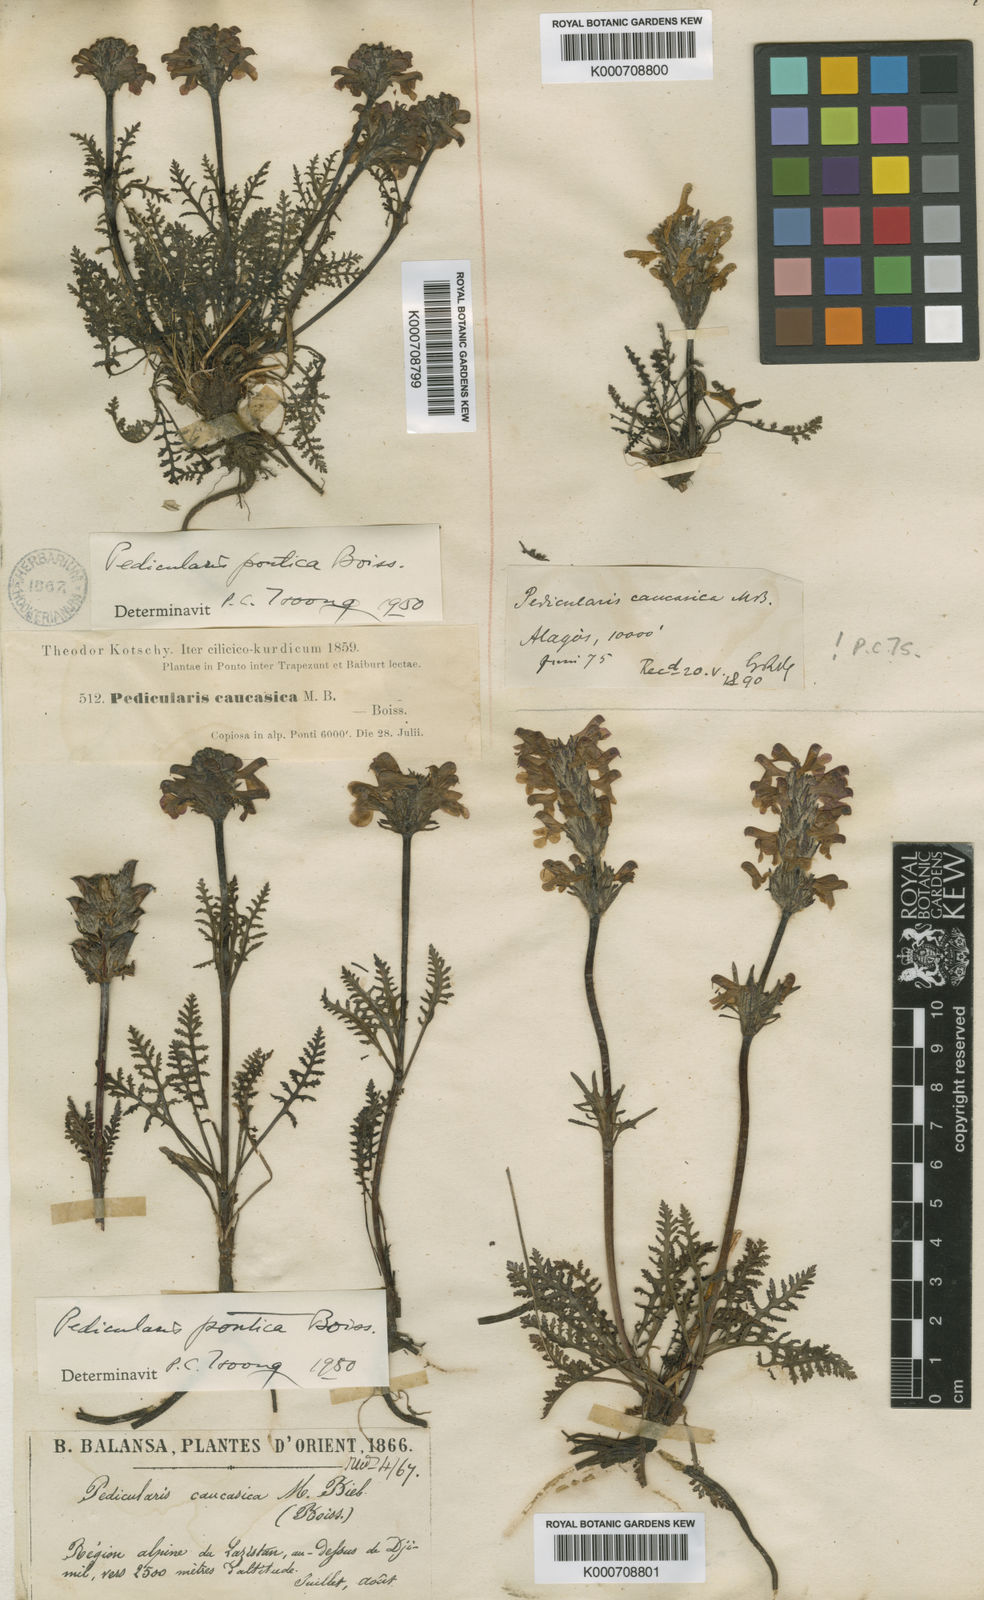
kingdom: Plantae
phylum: Tracheophyta
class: Magnoliopsida
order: Lamiales
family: Orobanchaceae
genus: Pedicularis
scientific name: Pedicularis pontica
